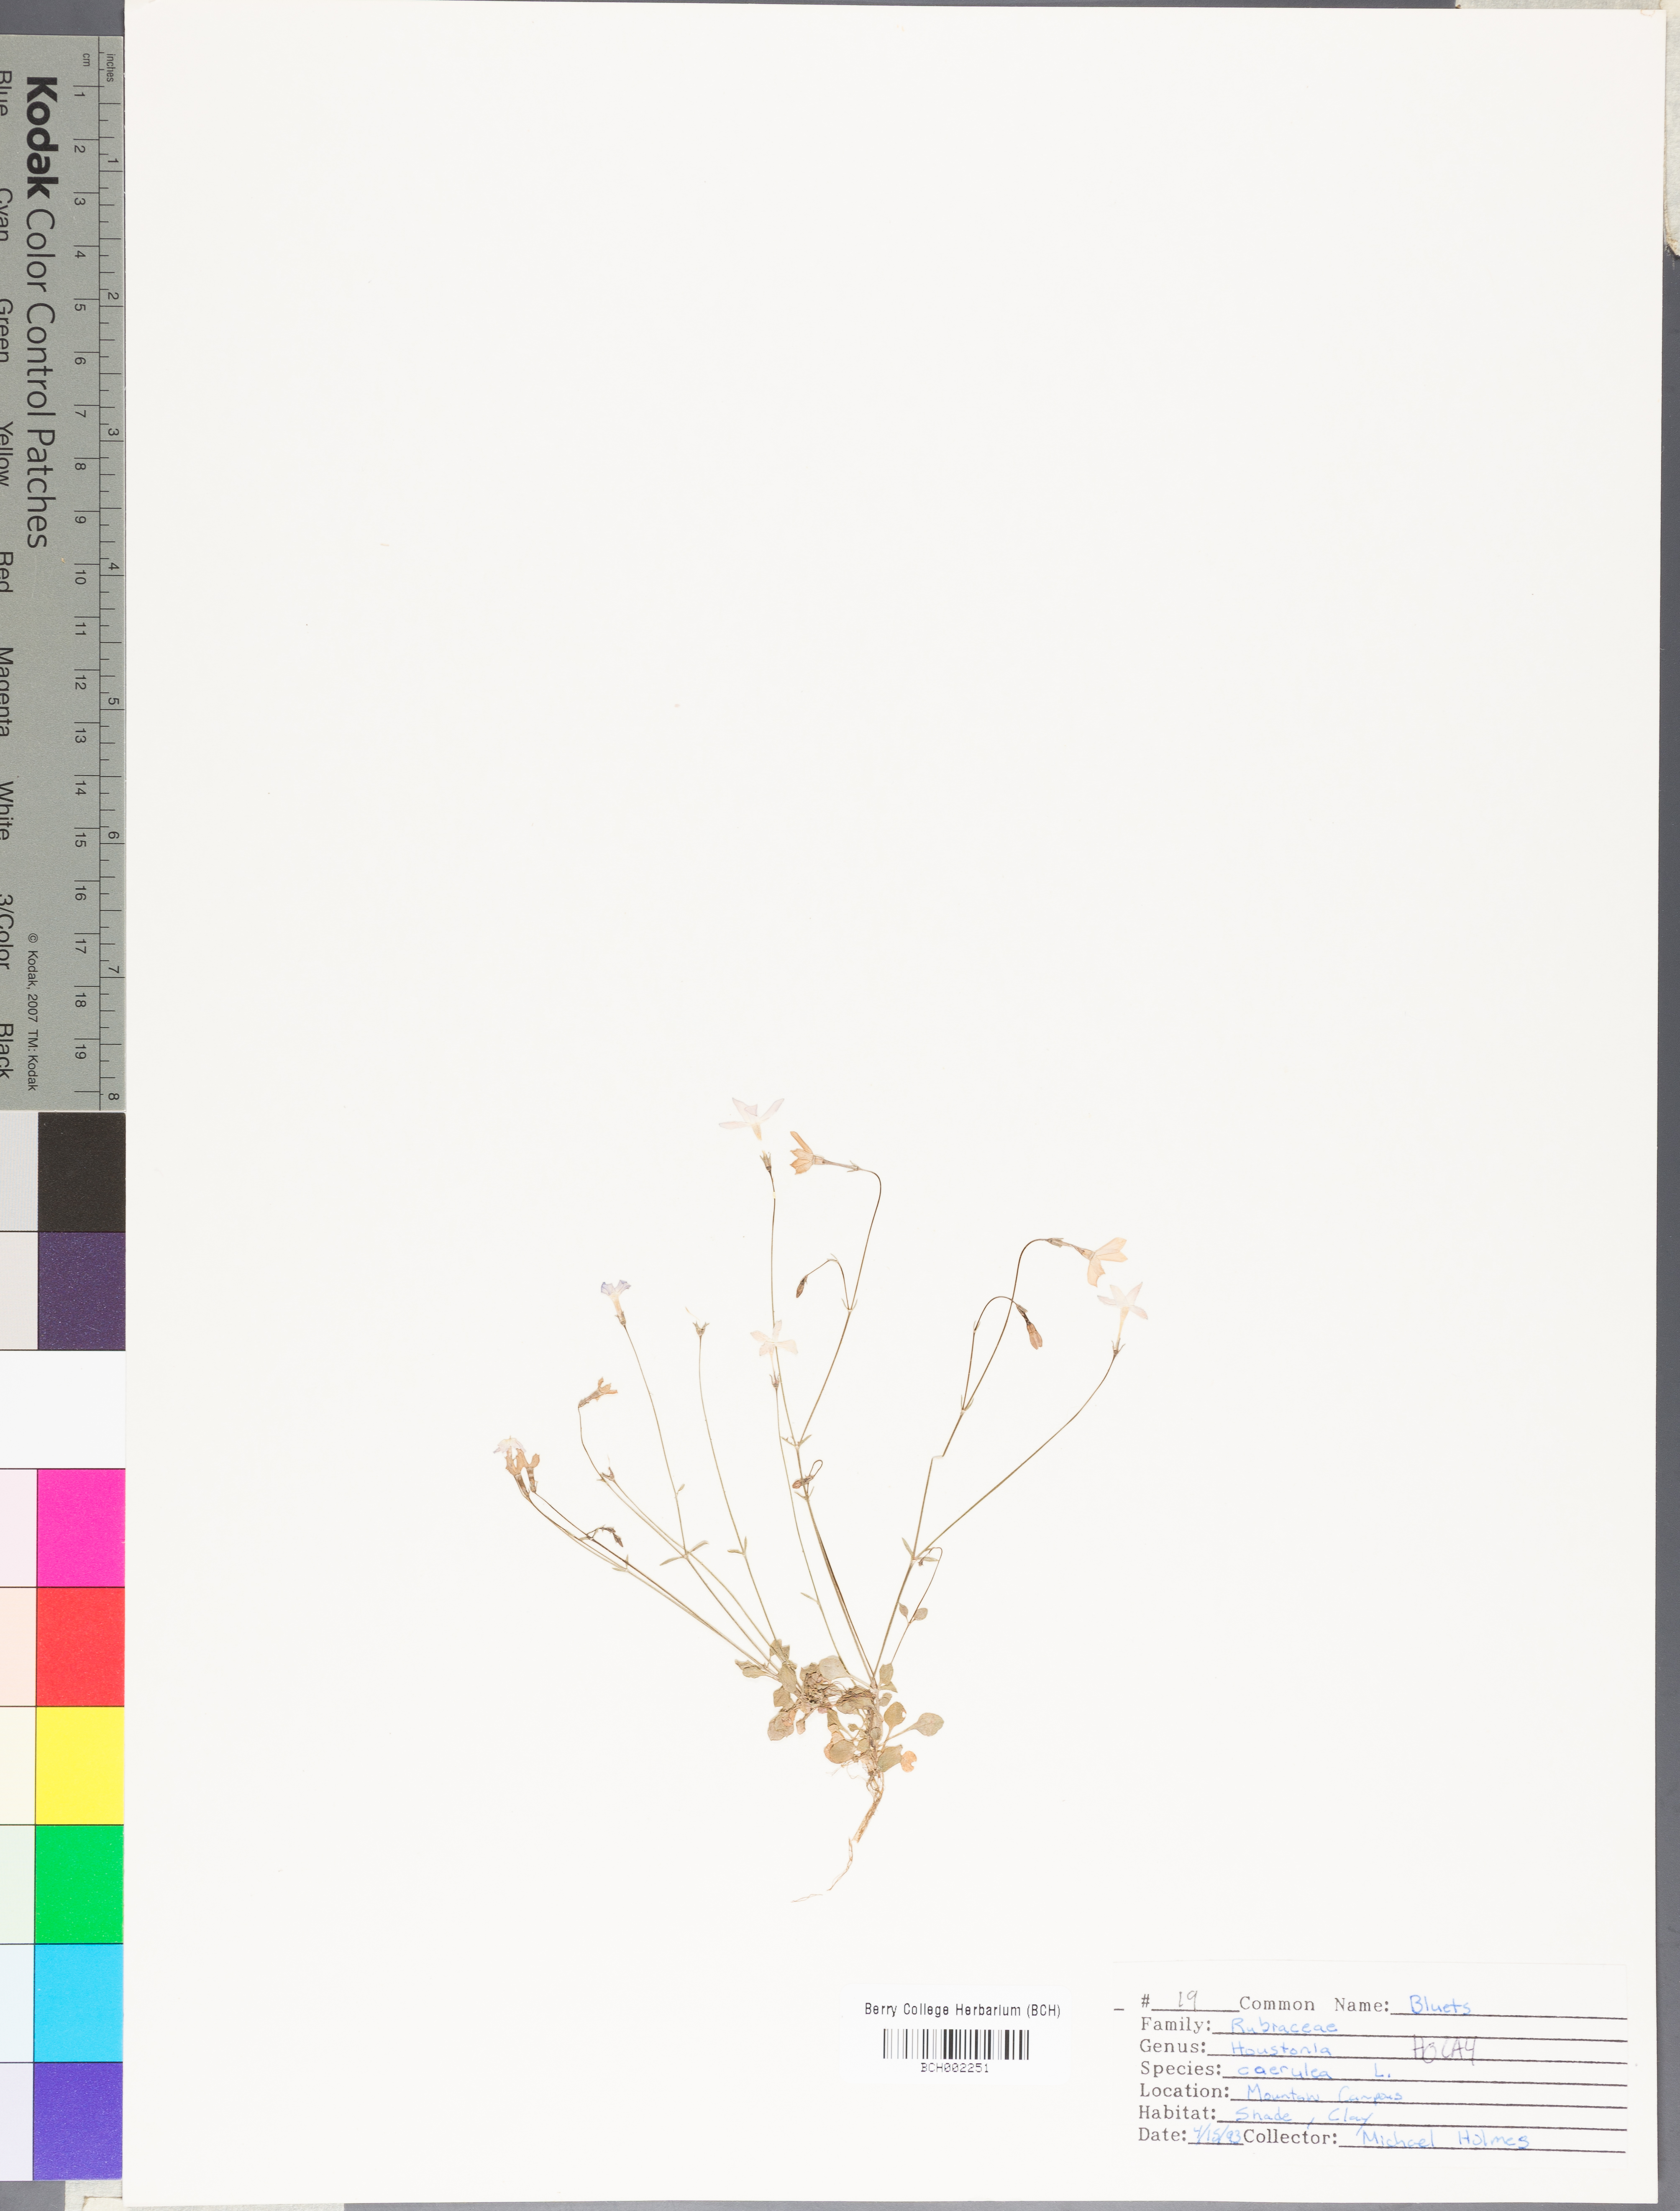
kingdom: Plantae
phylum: Tracheophyta
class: Magnoliopsida
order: Gentianales
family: Rubiaceae
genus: Houstonia
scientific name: Houstonia caerulea
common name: Bluets
